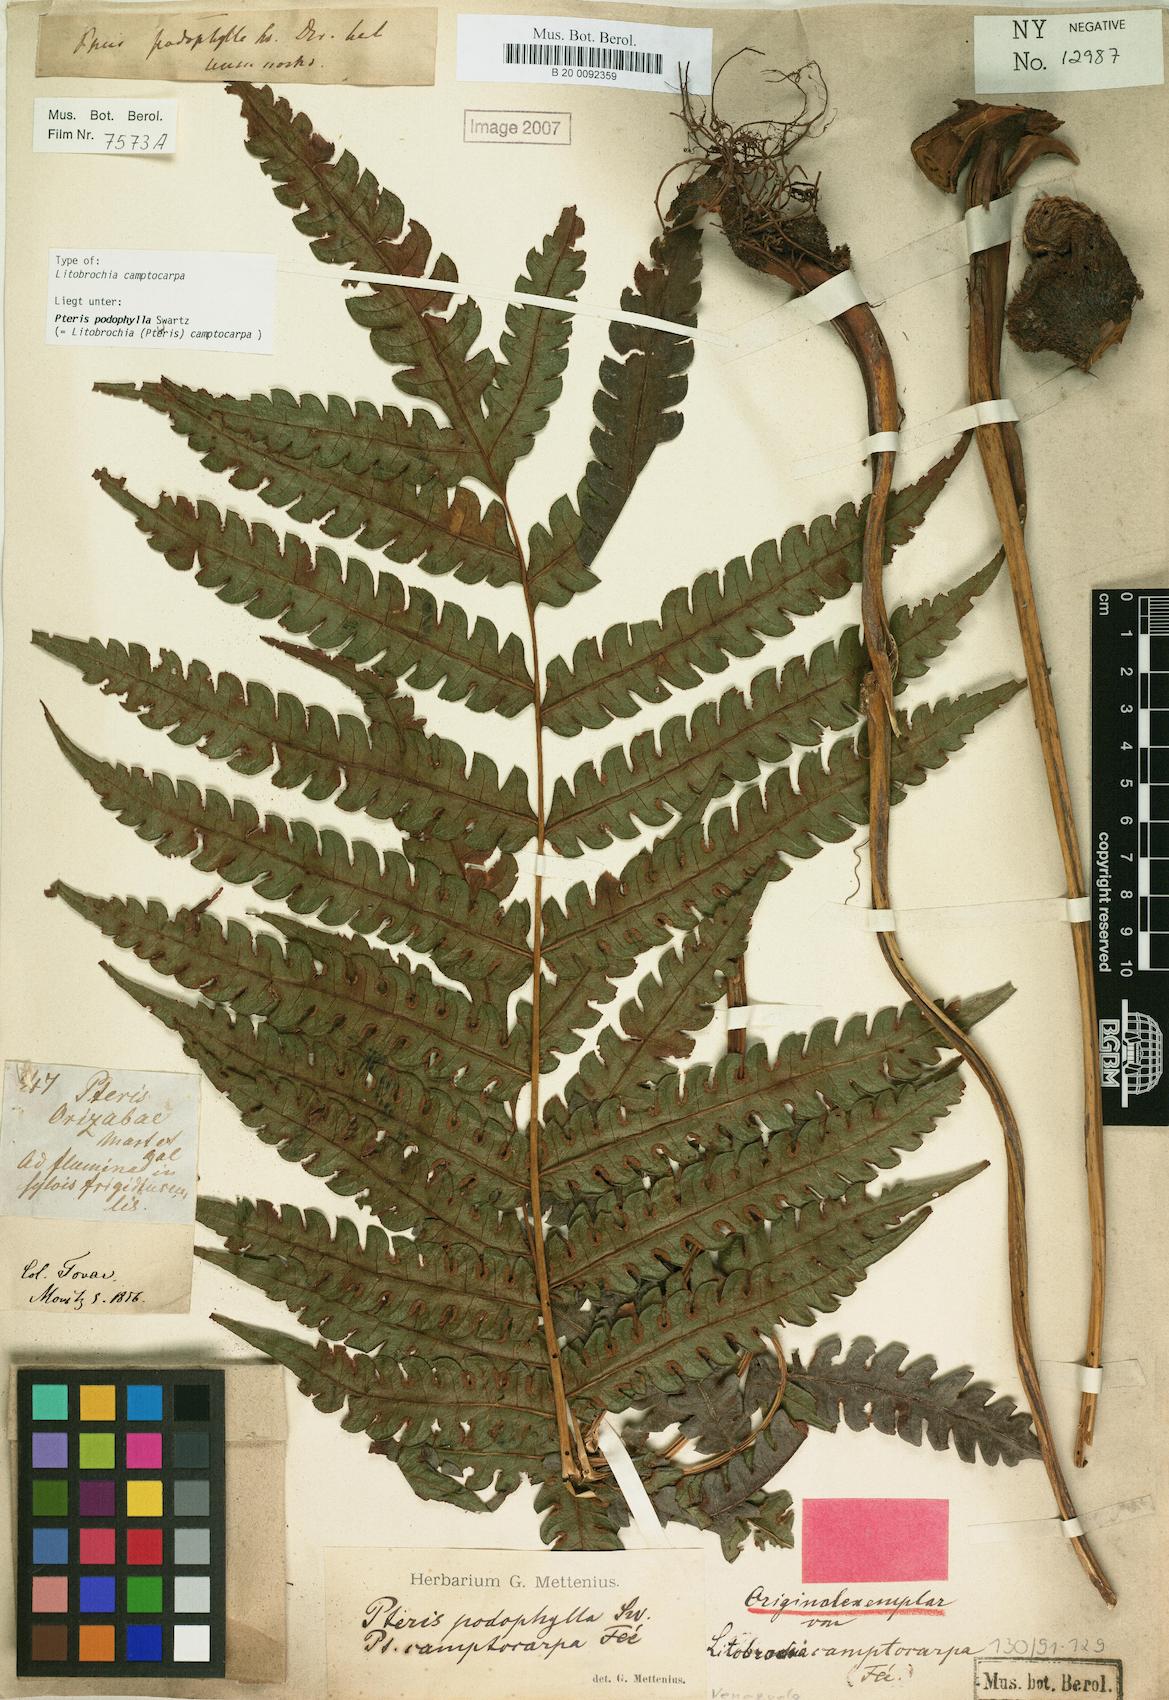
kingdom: Plantae
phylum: Tracheophyta
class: Polypodiopsida
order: Polypodiales
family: Pteridaceae
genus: Pteris
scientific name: Pteris podophylla
